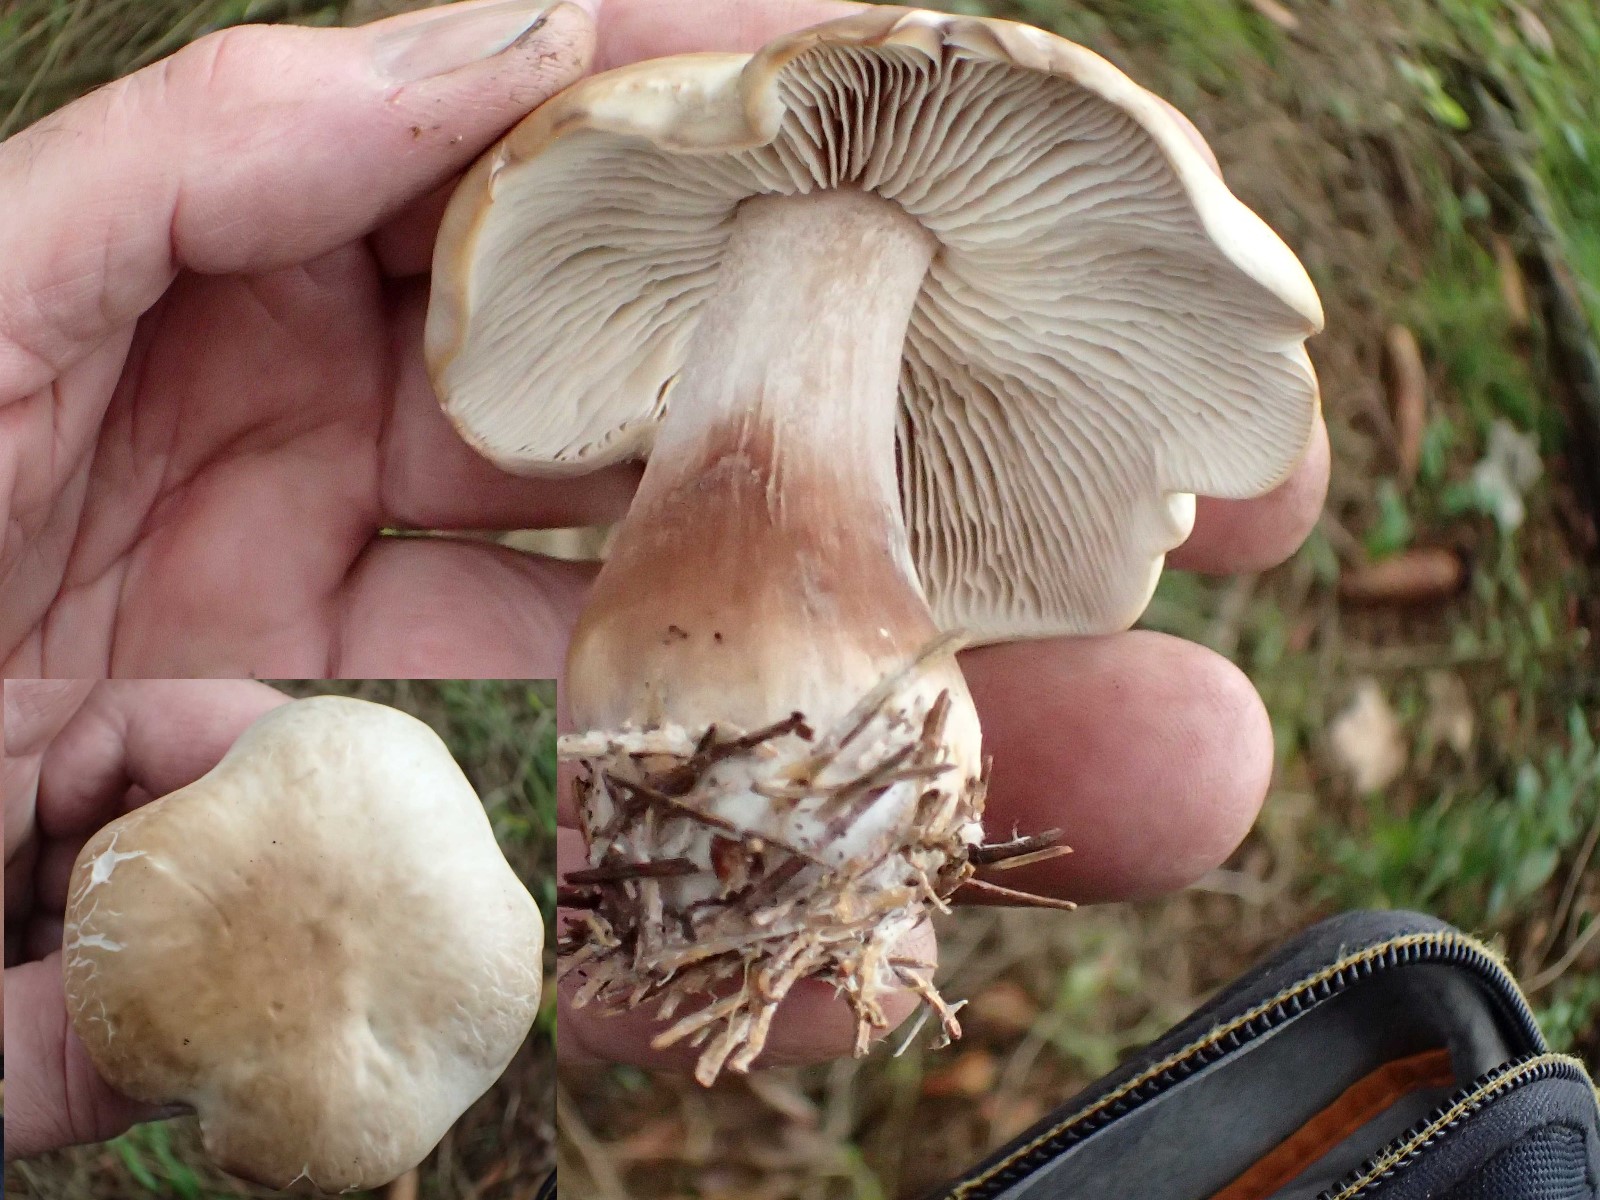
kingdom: Fungi
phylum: Basidiomycota
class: Agaricomycetes
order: Agaricales
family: Hygrophoraceae
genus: Ampulloclitocybe
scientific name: Ampulloclitocybe clavipes
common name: køllefod
